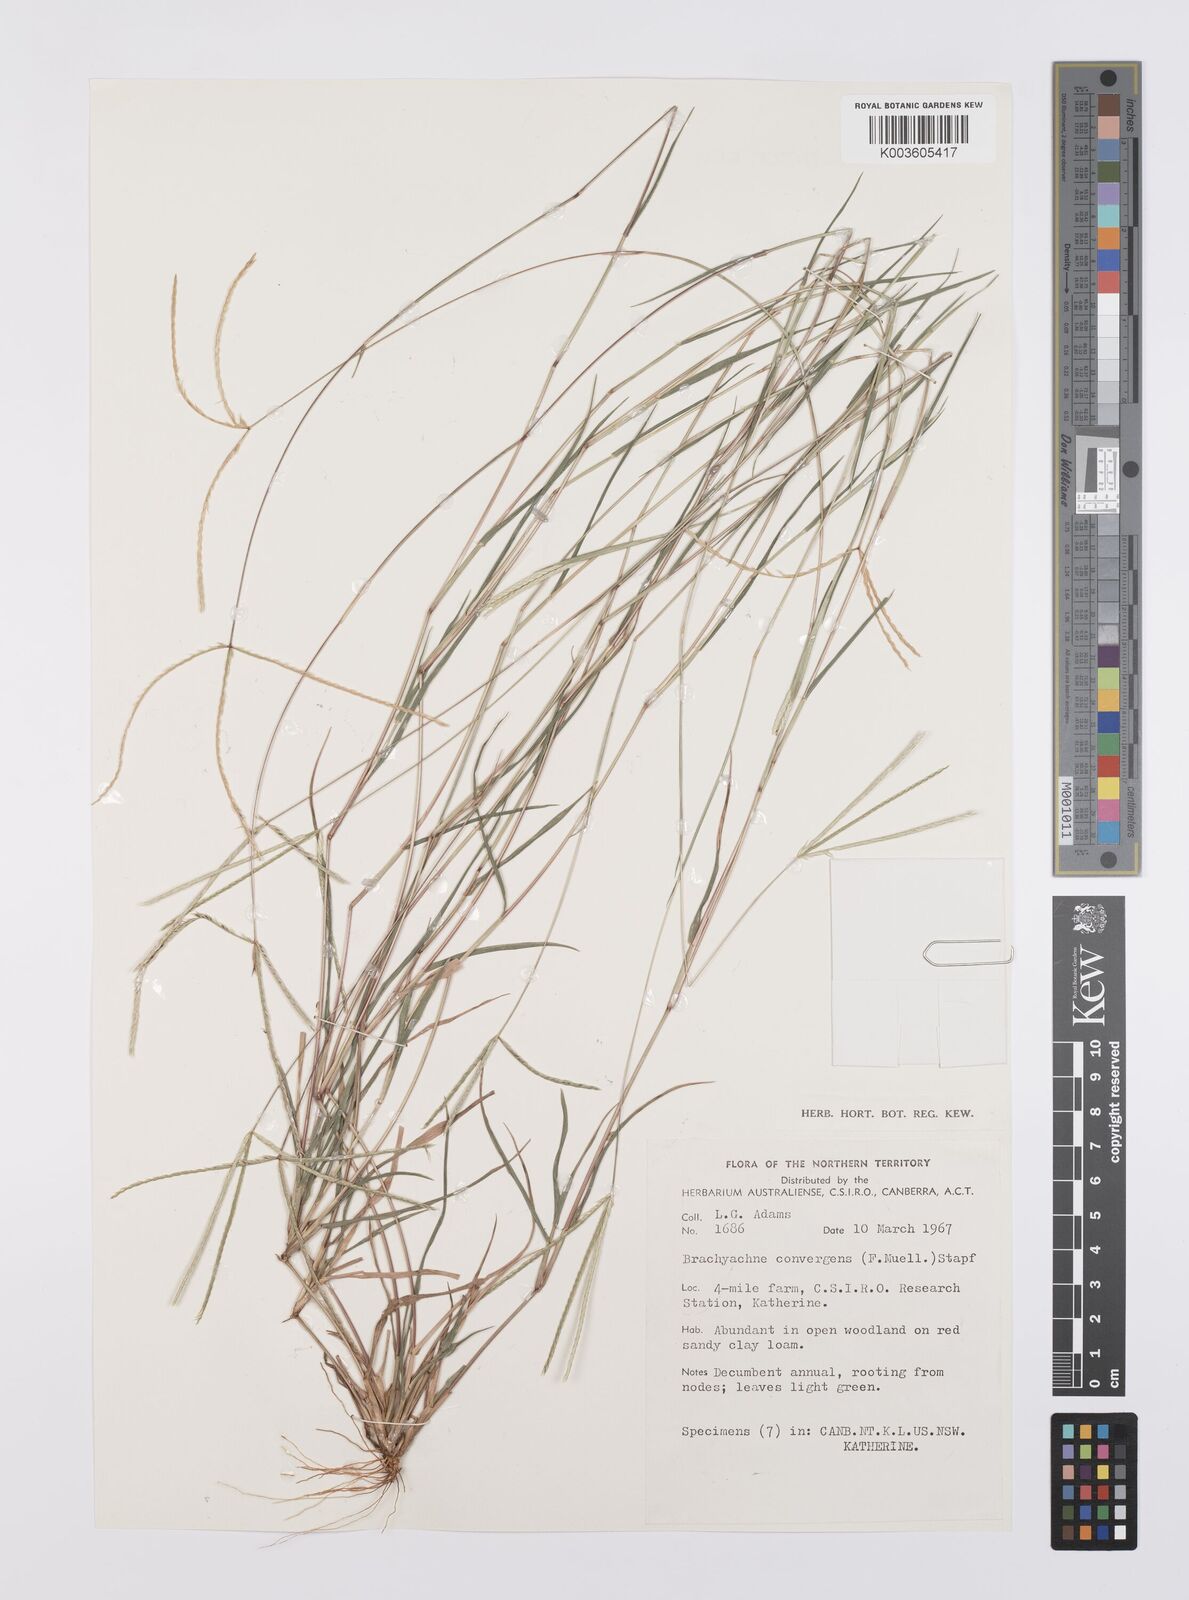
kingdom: Plantae
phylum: Tracheophyta
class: Liliopsida
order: Poales
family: Poaceae
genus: Cynodon
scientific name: Cynodon convergens
